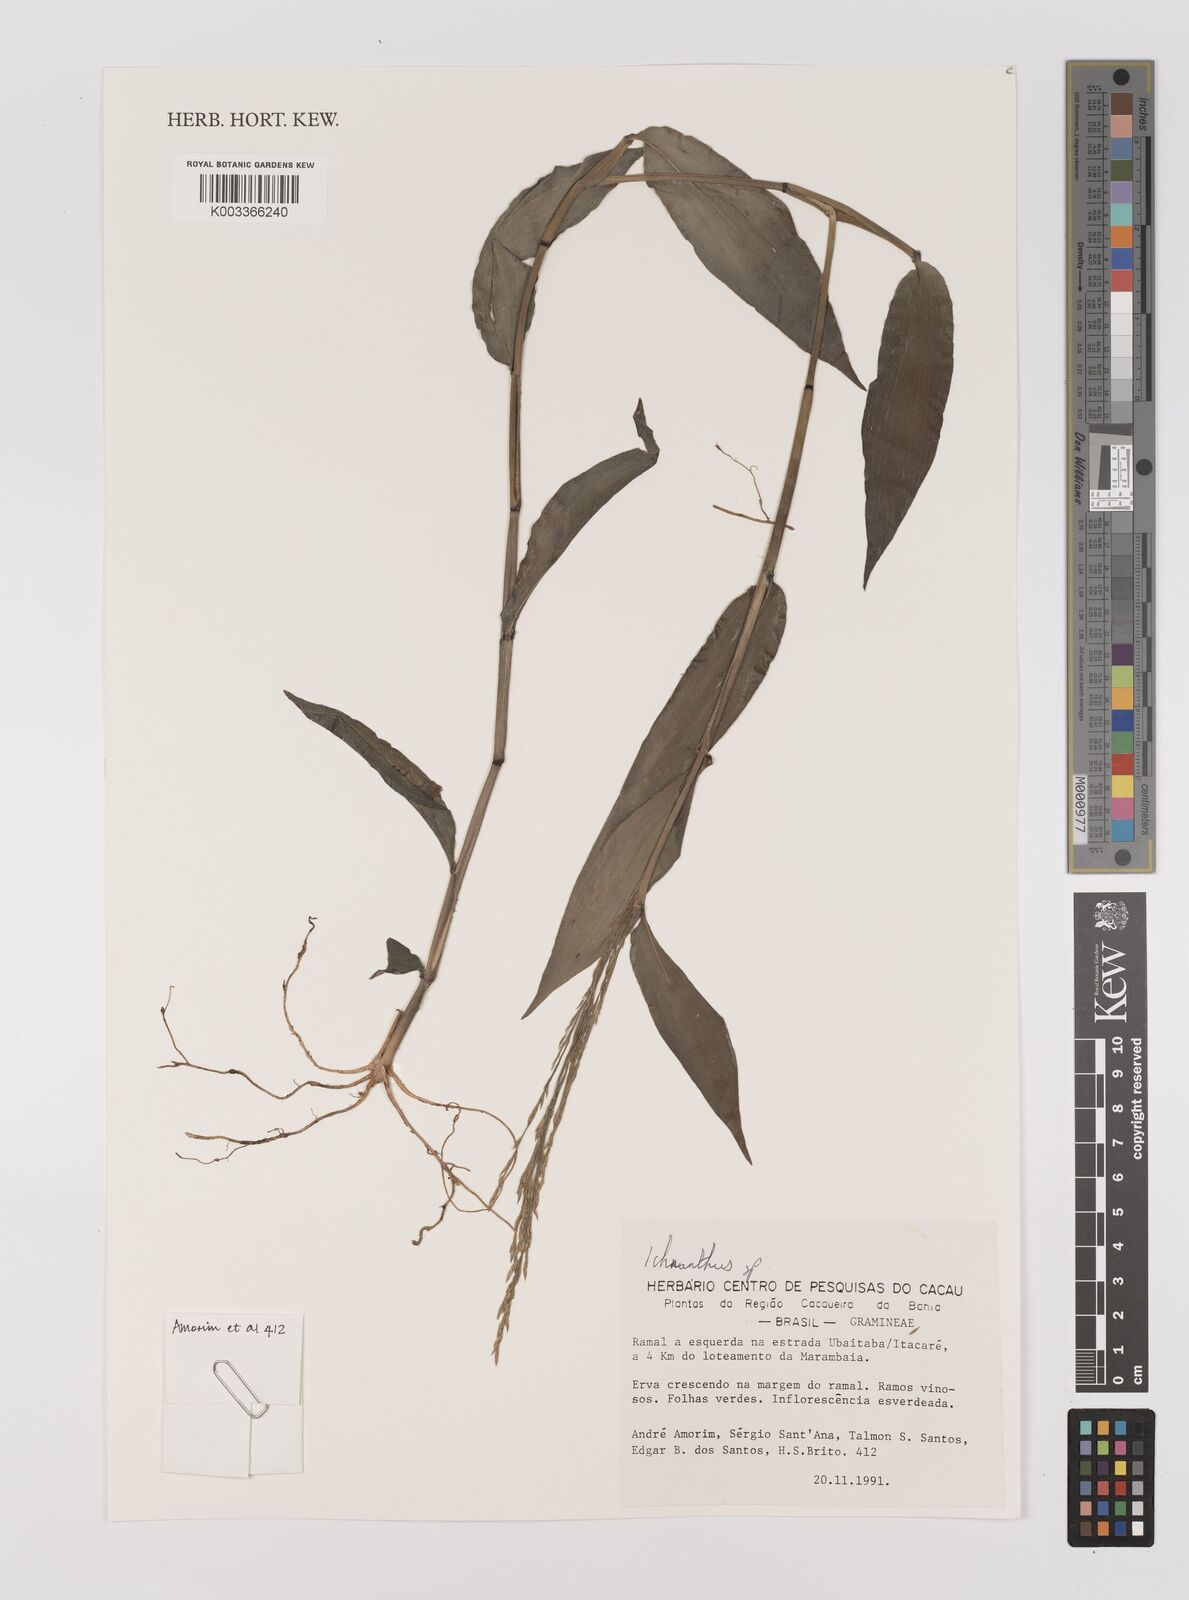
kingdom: Plantae
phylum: Tracheophyta
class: Liliopsida
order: Poales
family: Poaceae
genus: Ichnanthus
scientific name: Ichnanthus
